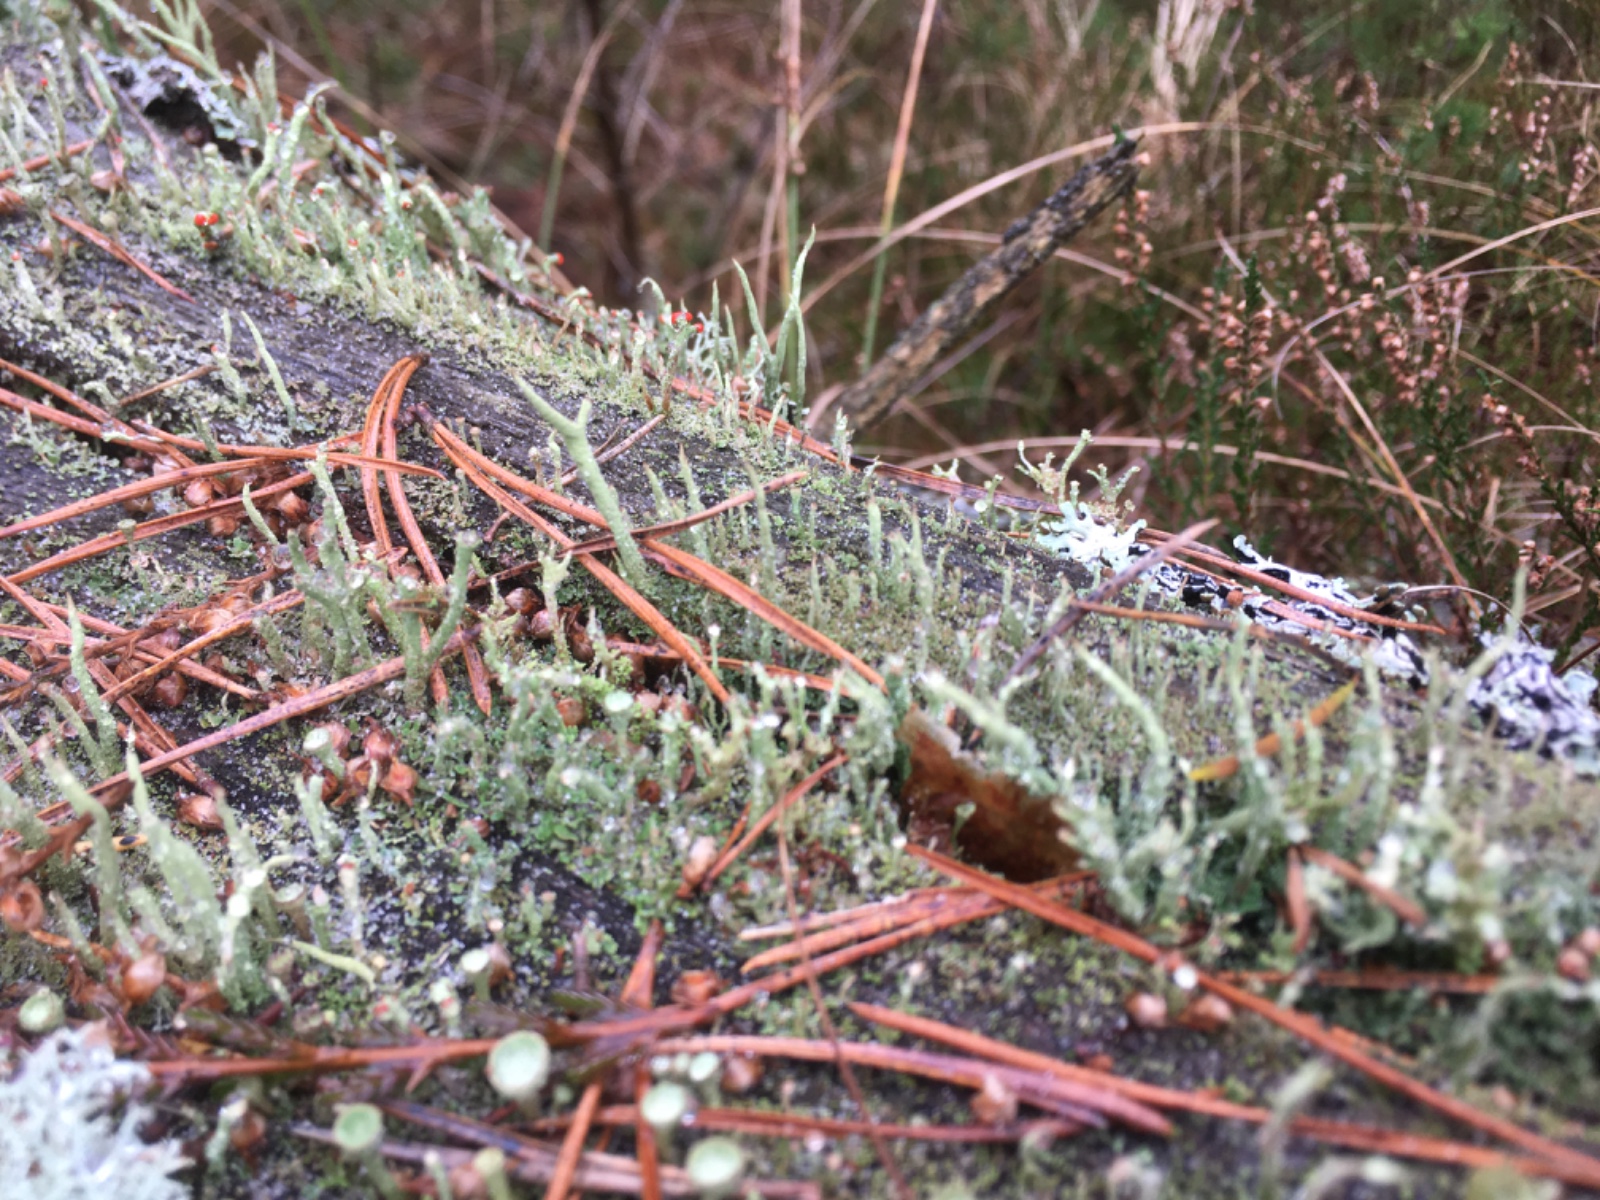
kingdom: Fungi
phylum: Ascomycota
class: Lecanoromycetes
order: Lecanorales
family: Cladoniaceae
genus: Cladonia
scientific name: Cladonia
